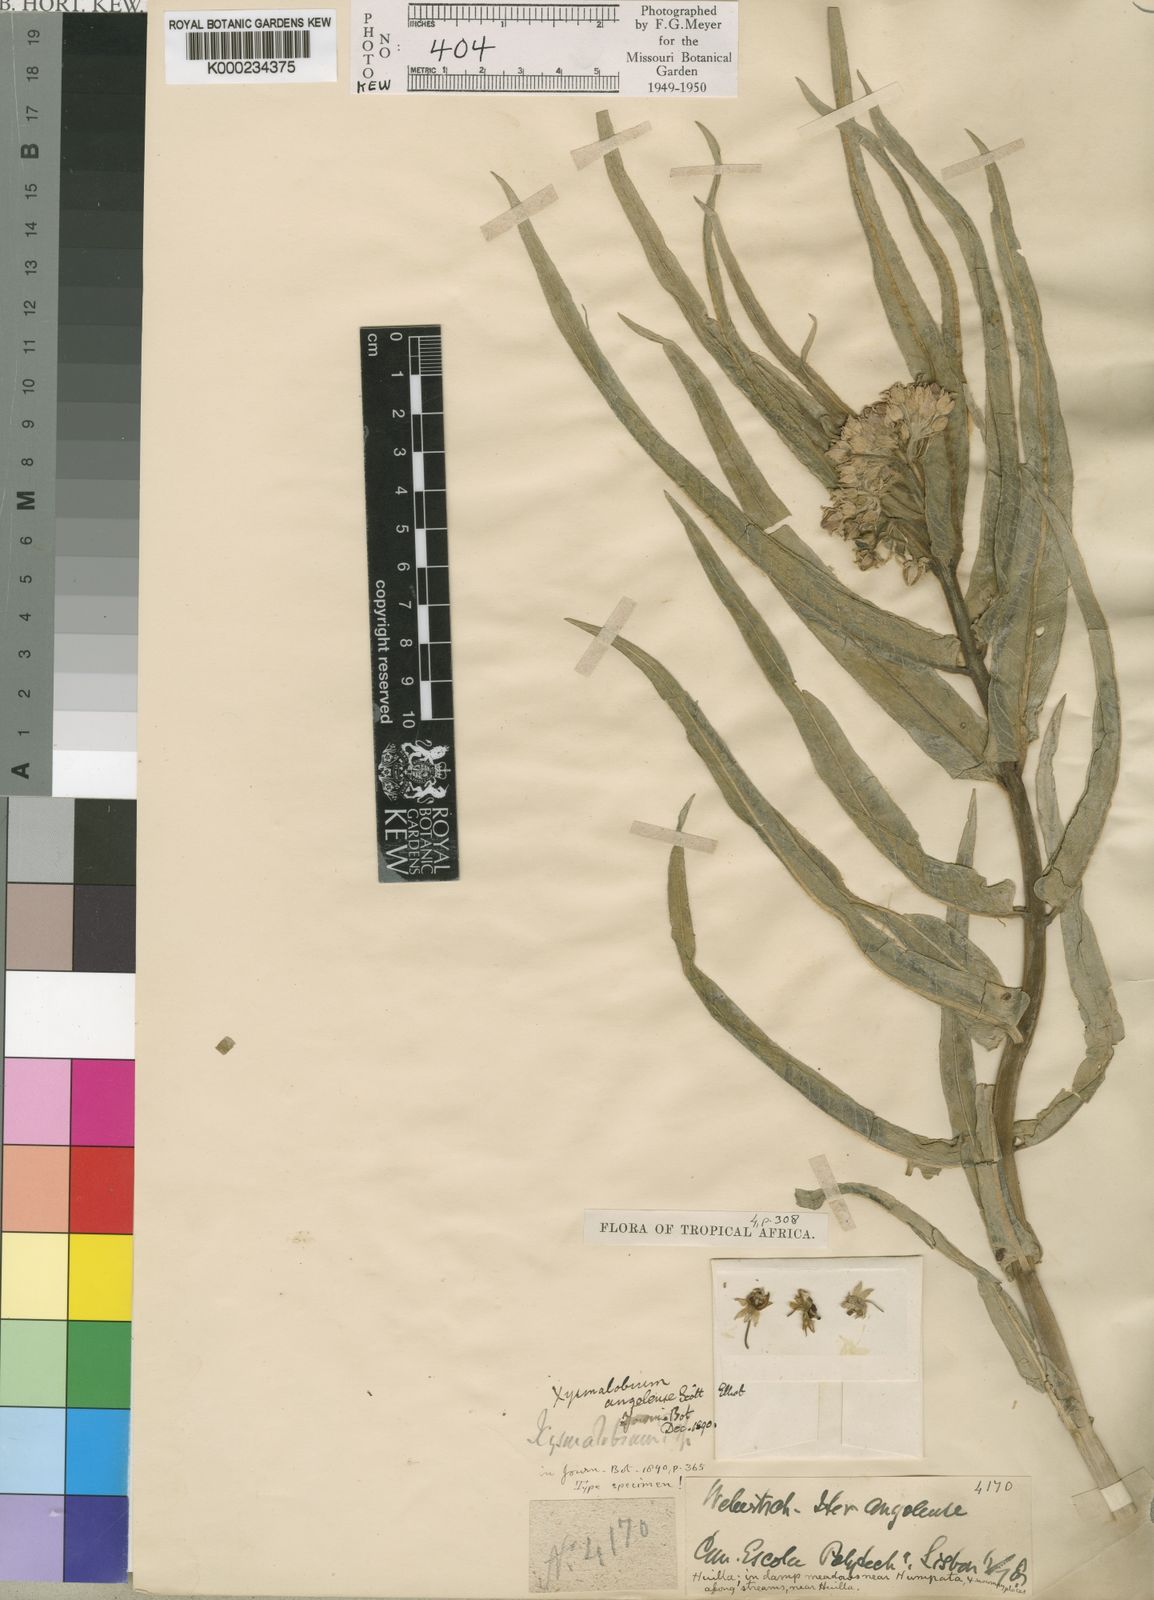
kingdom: Plantae
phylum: Tracheophyta
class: Magnoliopsida
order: Gentianales
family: Apocynaceae
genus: Xysmalobium
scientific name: Xysmalobium undulatum
